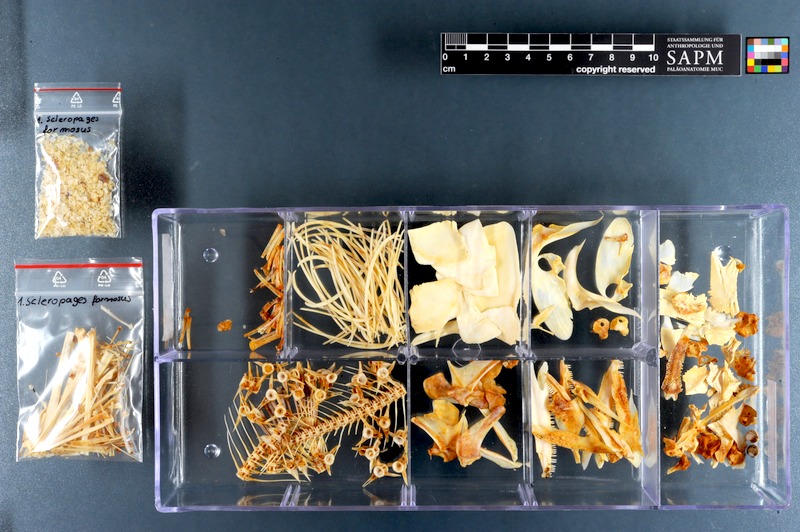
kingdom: Animalia
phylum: Chordata
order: Osteoglossiformes
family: Osteoglossidae
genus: Scleropages
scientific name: Scleropages formosus
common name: Asian bonytongue
